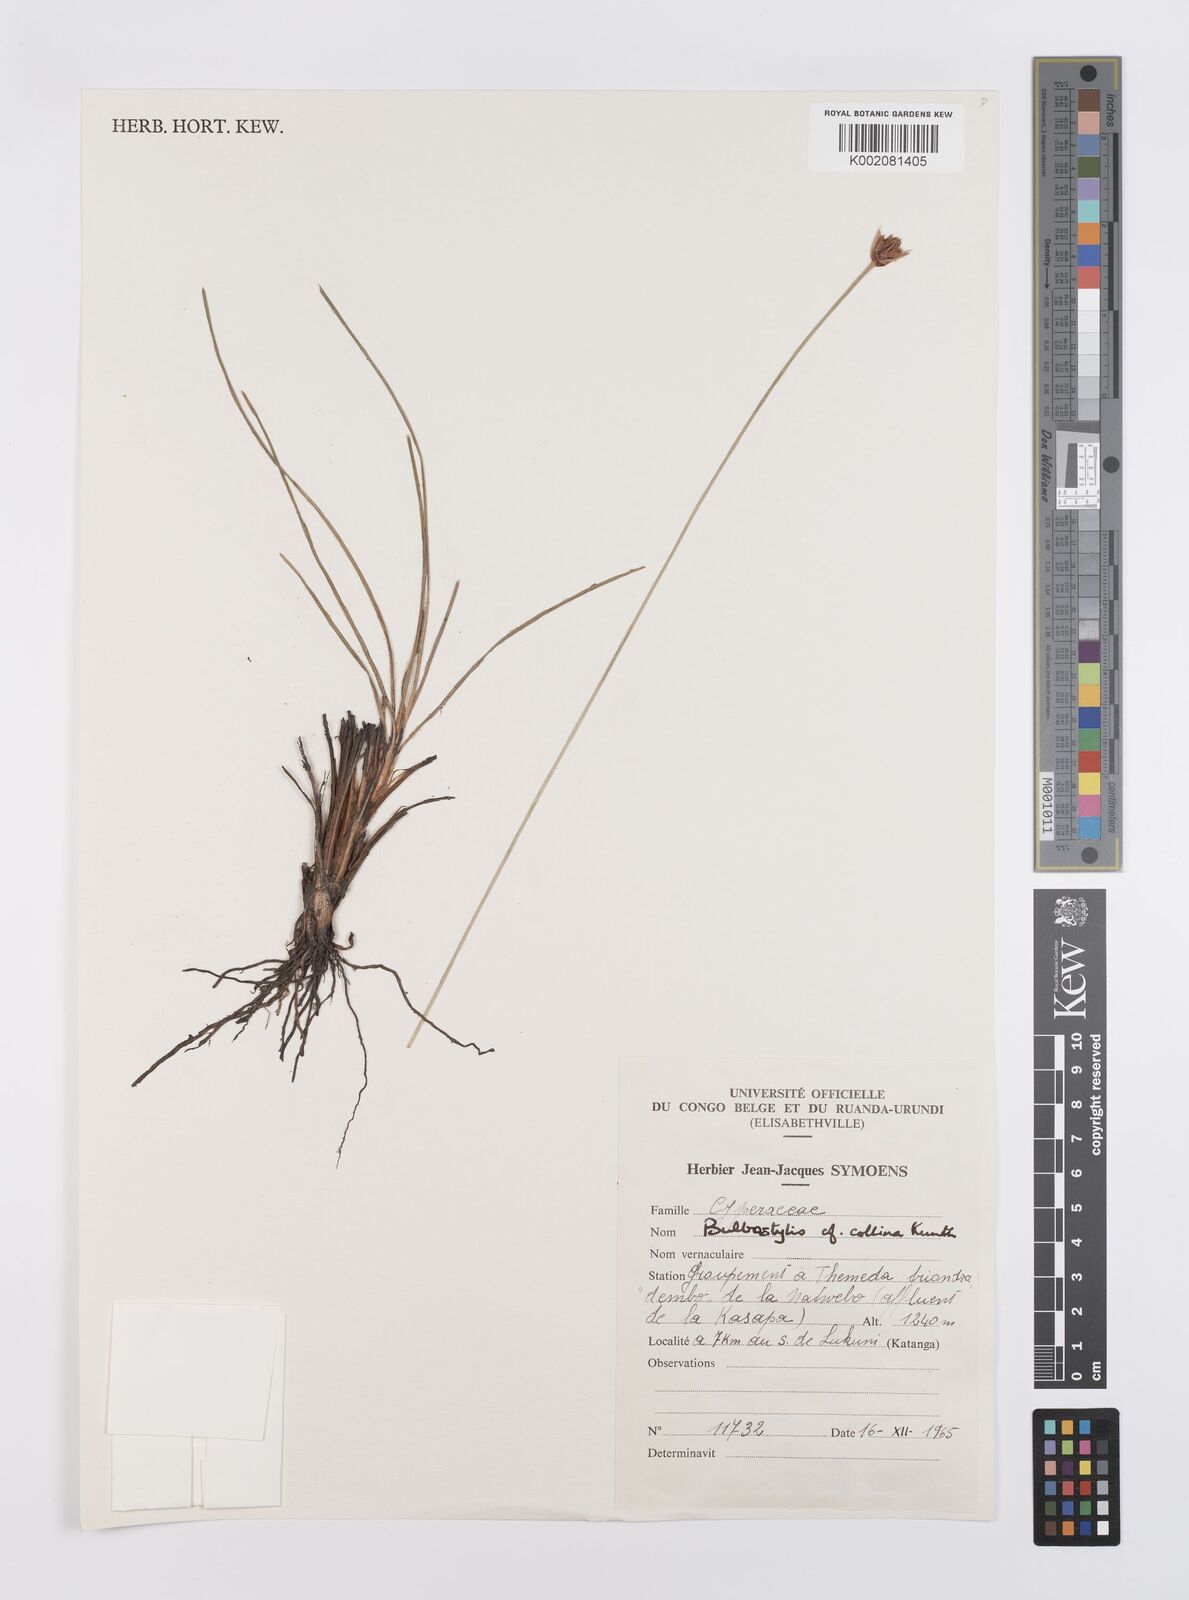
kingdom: Plantae
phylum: Tracheophyta
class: Liliopsida
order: Poales
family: Cyperaceae
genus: Bulbostylis
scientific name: Bulbostylis contexta
